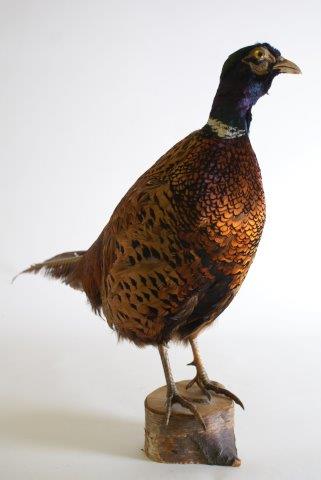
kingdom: Animalia
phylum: Chordata
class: Aves
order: Galliformes
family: Phasianidae
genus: Phasianus
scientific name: Phasianus colchicus
